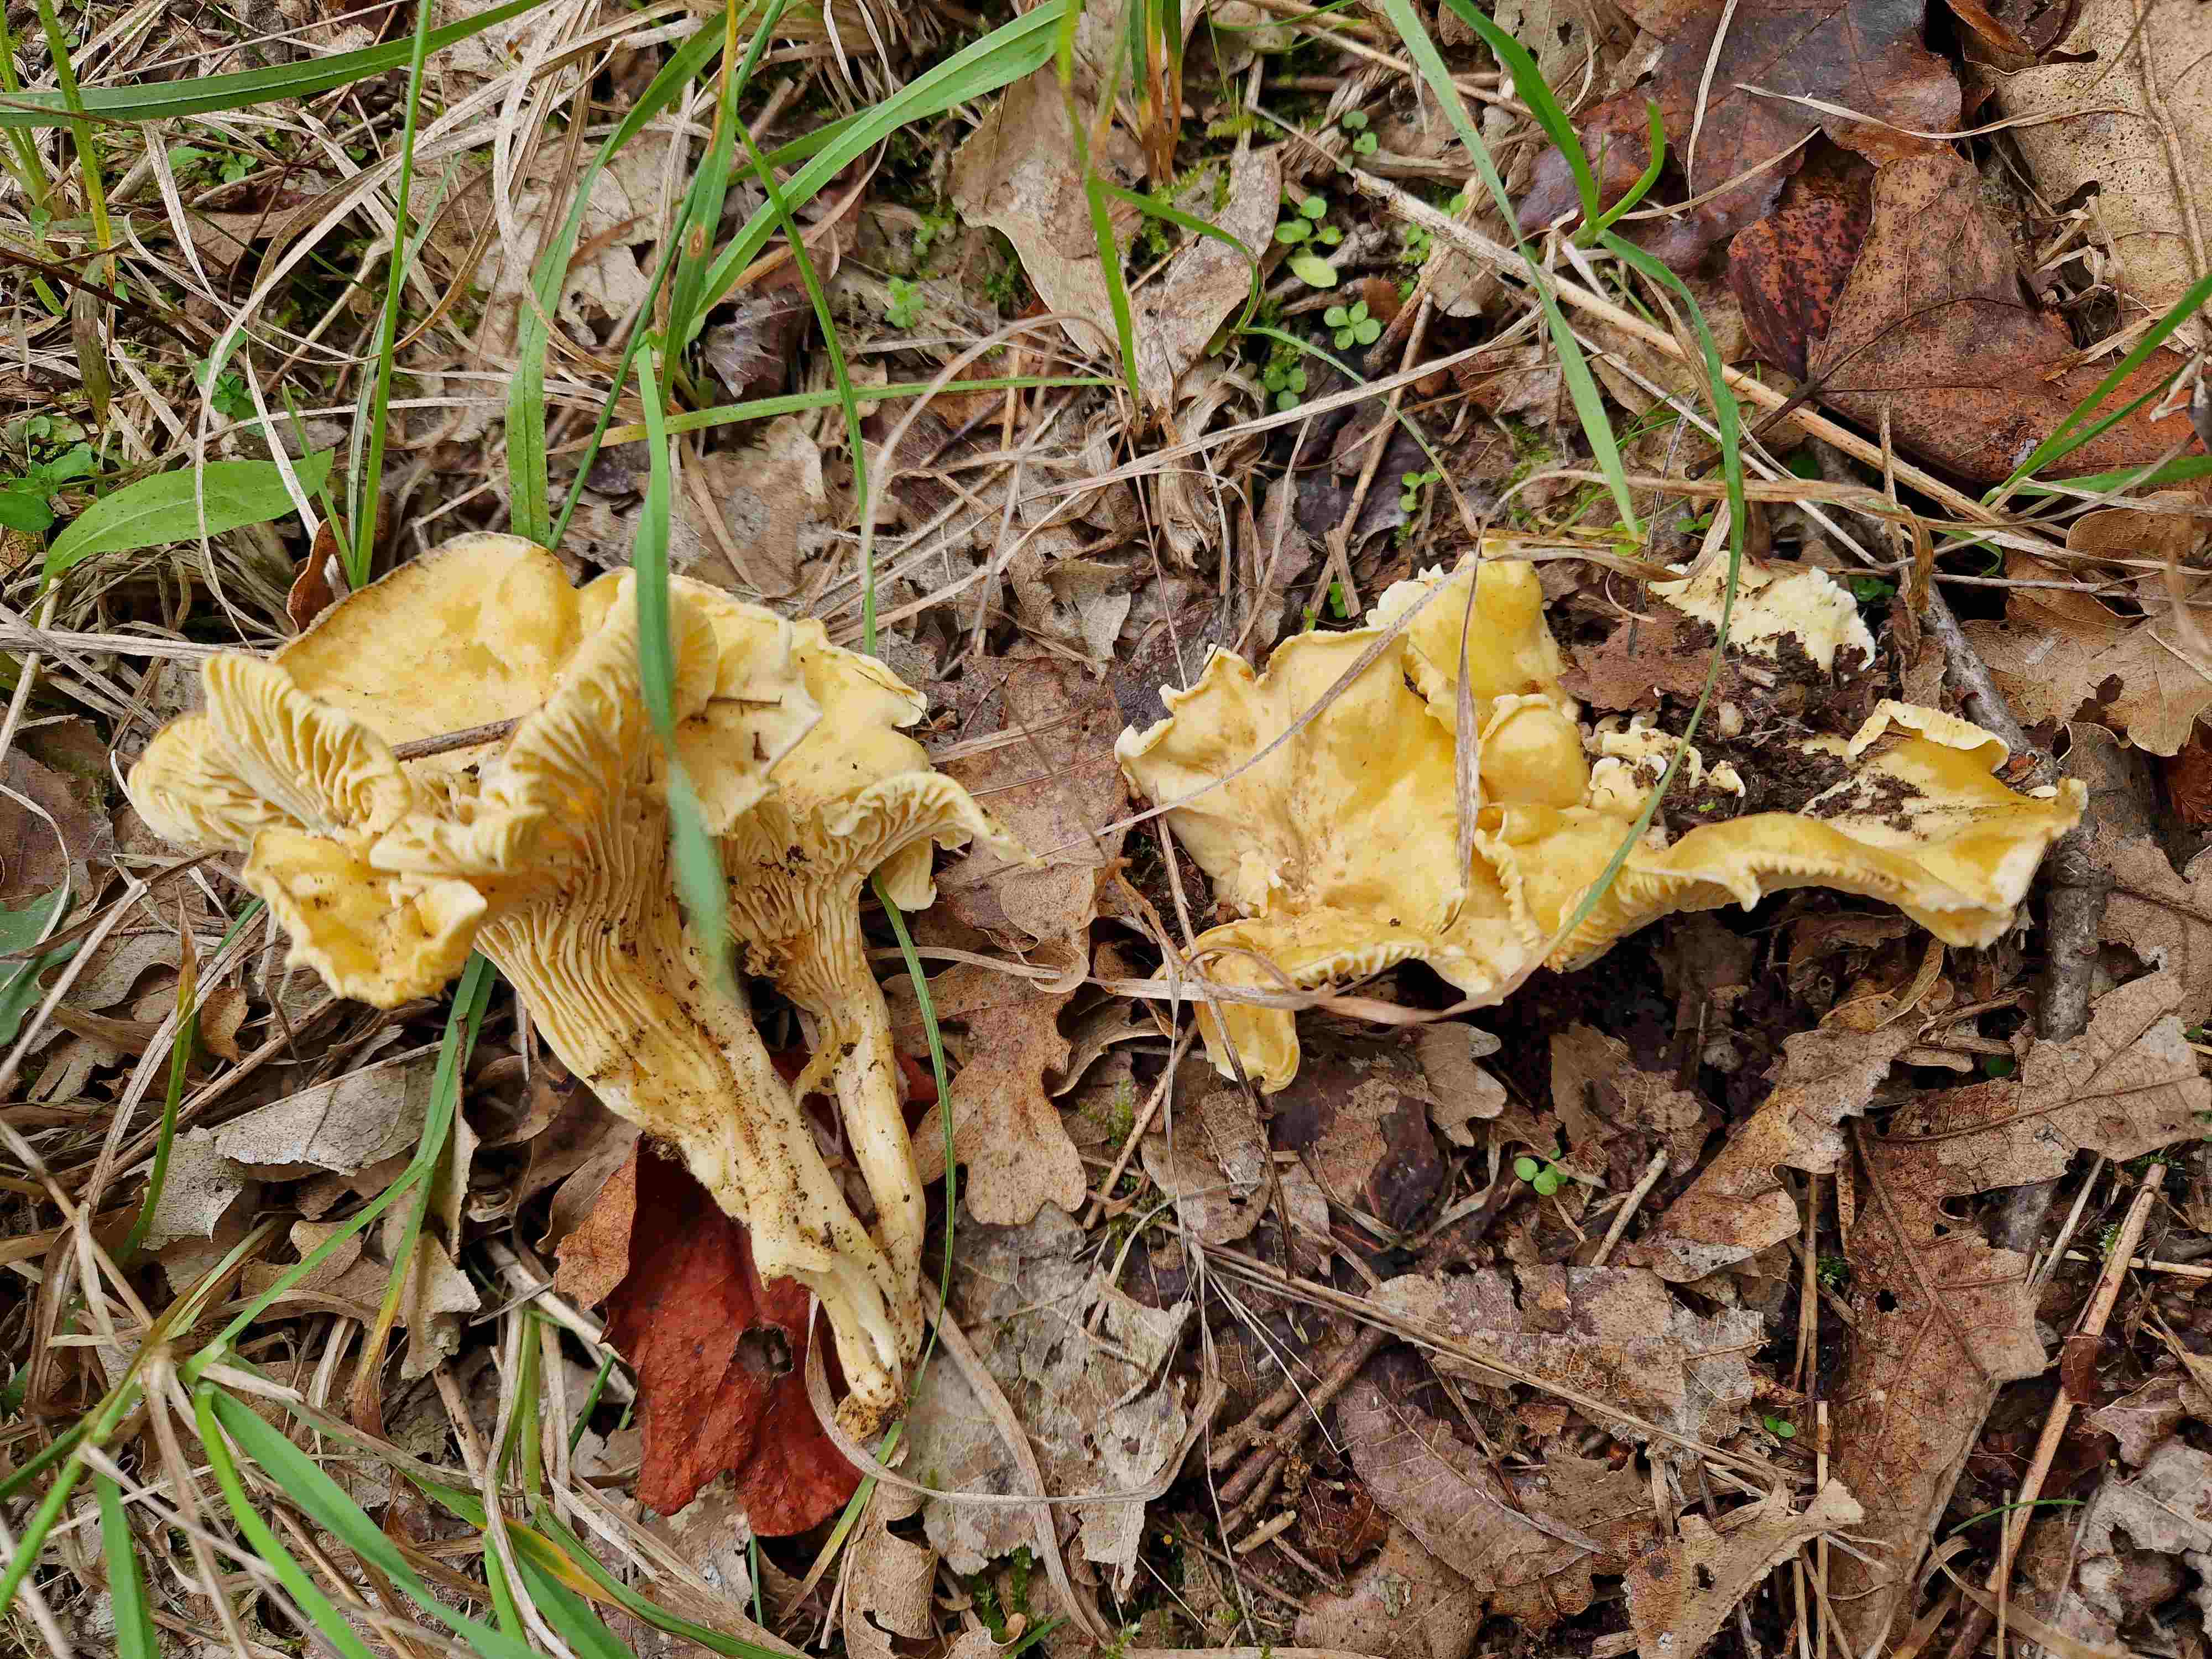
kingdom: Fungi
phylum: Basidiomycota
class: Agaricomycetes
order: Cantharellales
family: Hydnaceae
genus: Cantharellus
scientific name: Cantharellus ferruginascens
